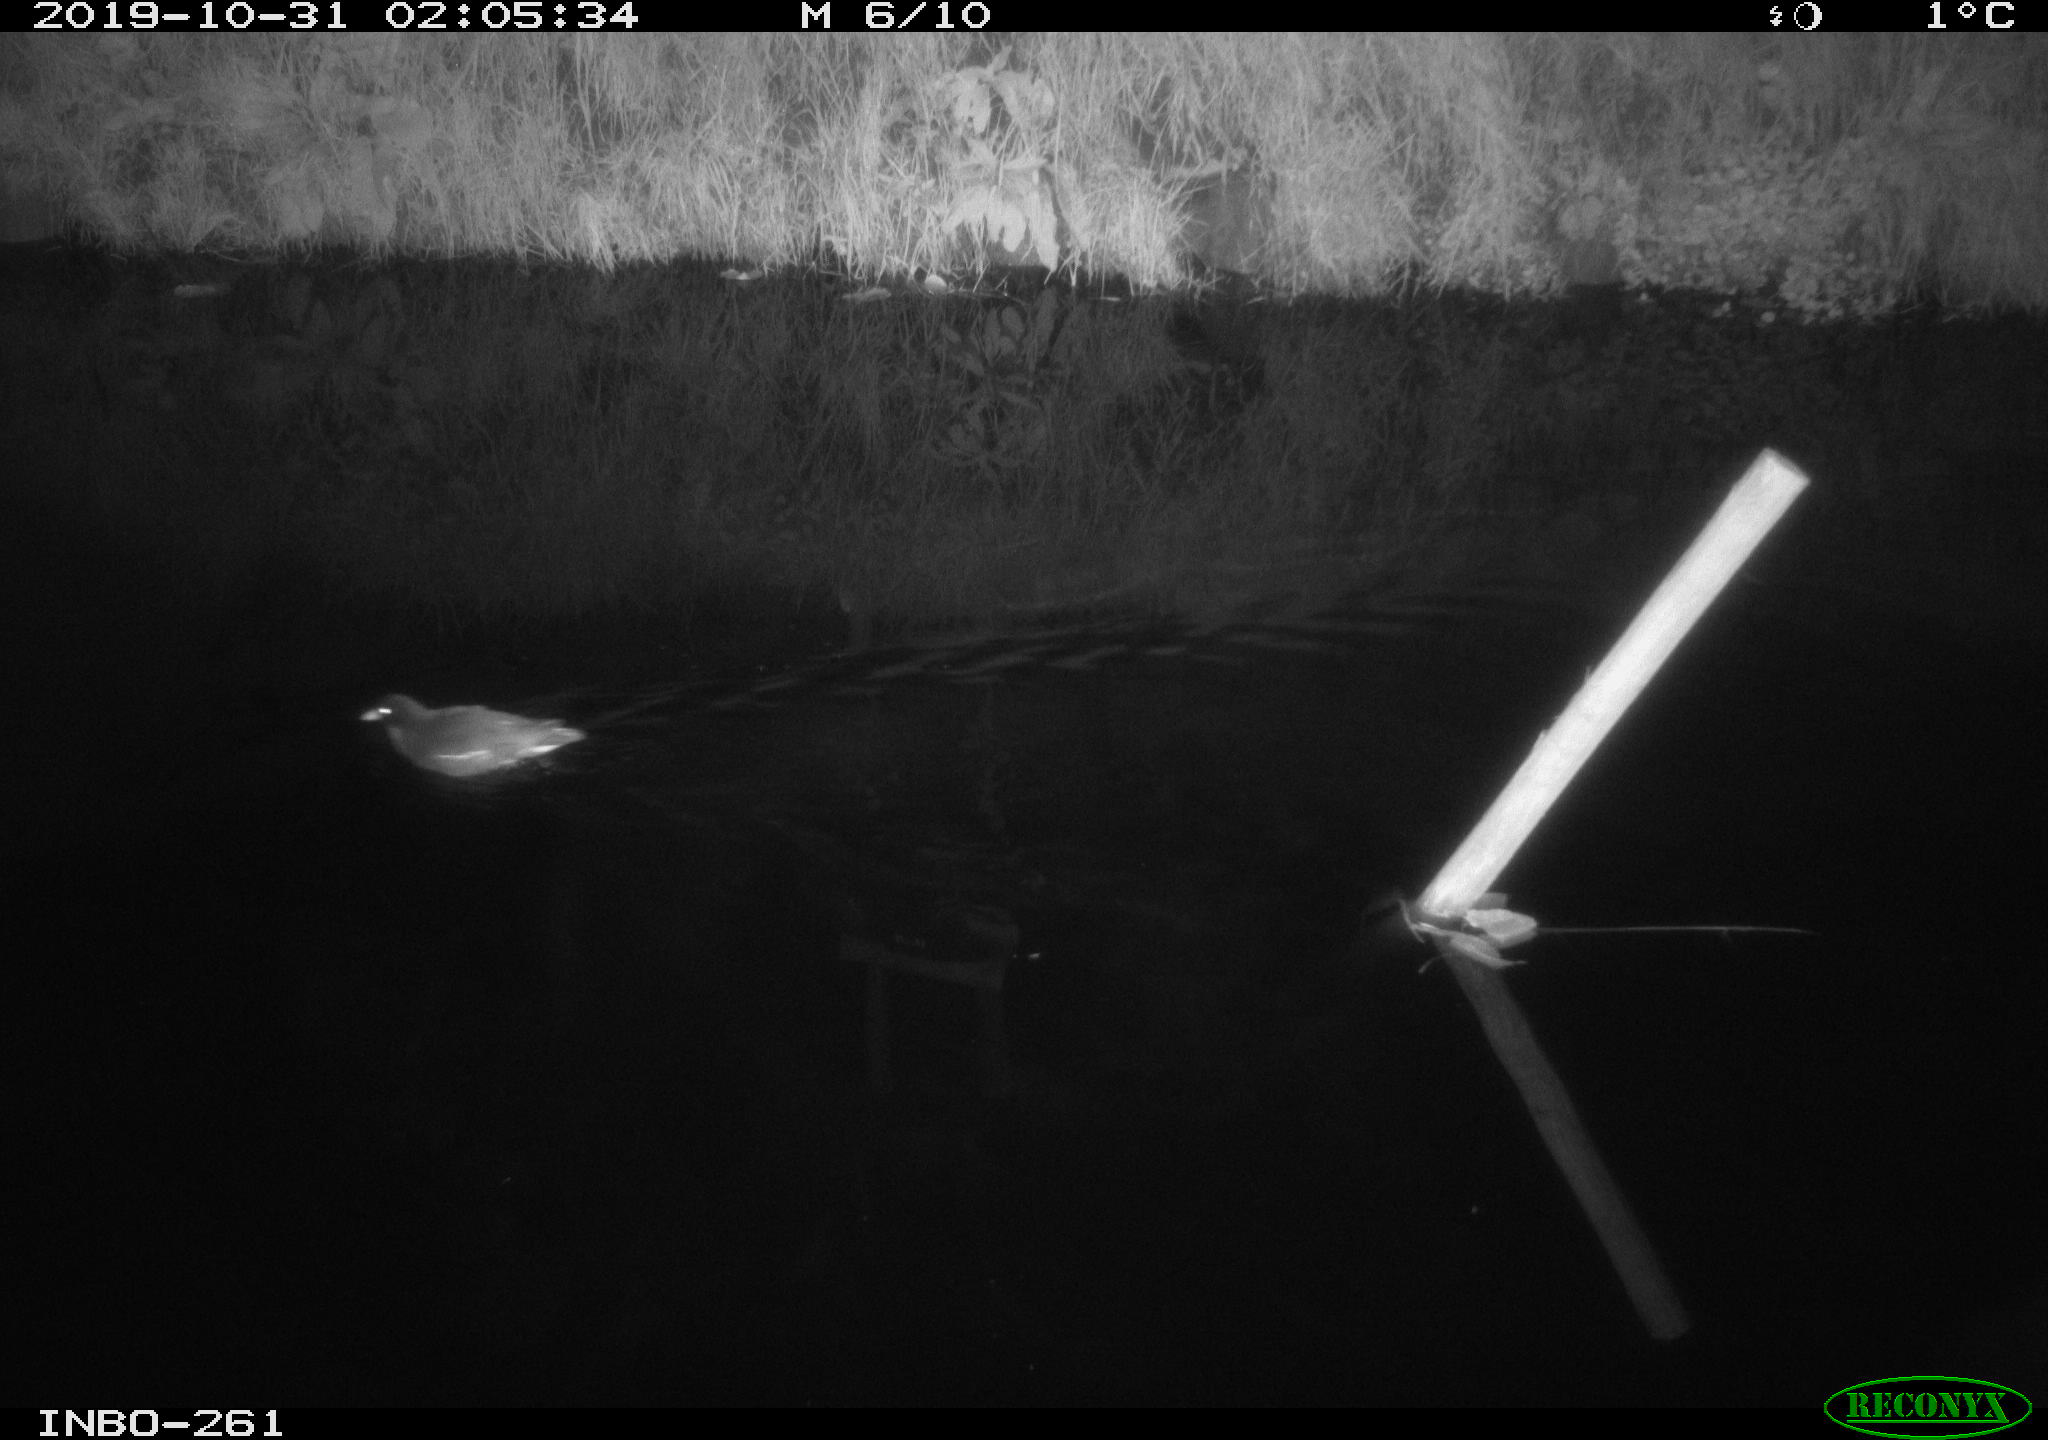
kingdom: Animalia
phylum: Chordata
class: Aves
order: Gruiformes
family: Rallidae
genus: Gallinula
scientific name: Gallinula chloropus
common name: Common moorhen
